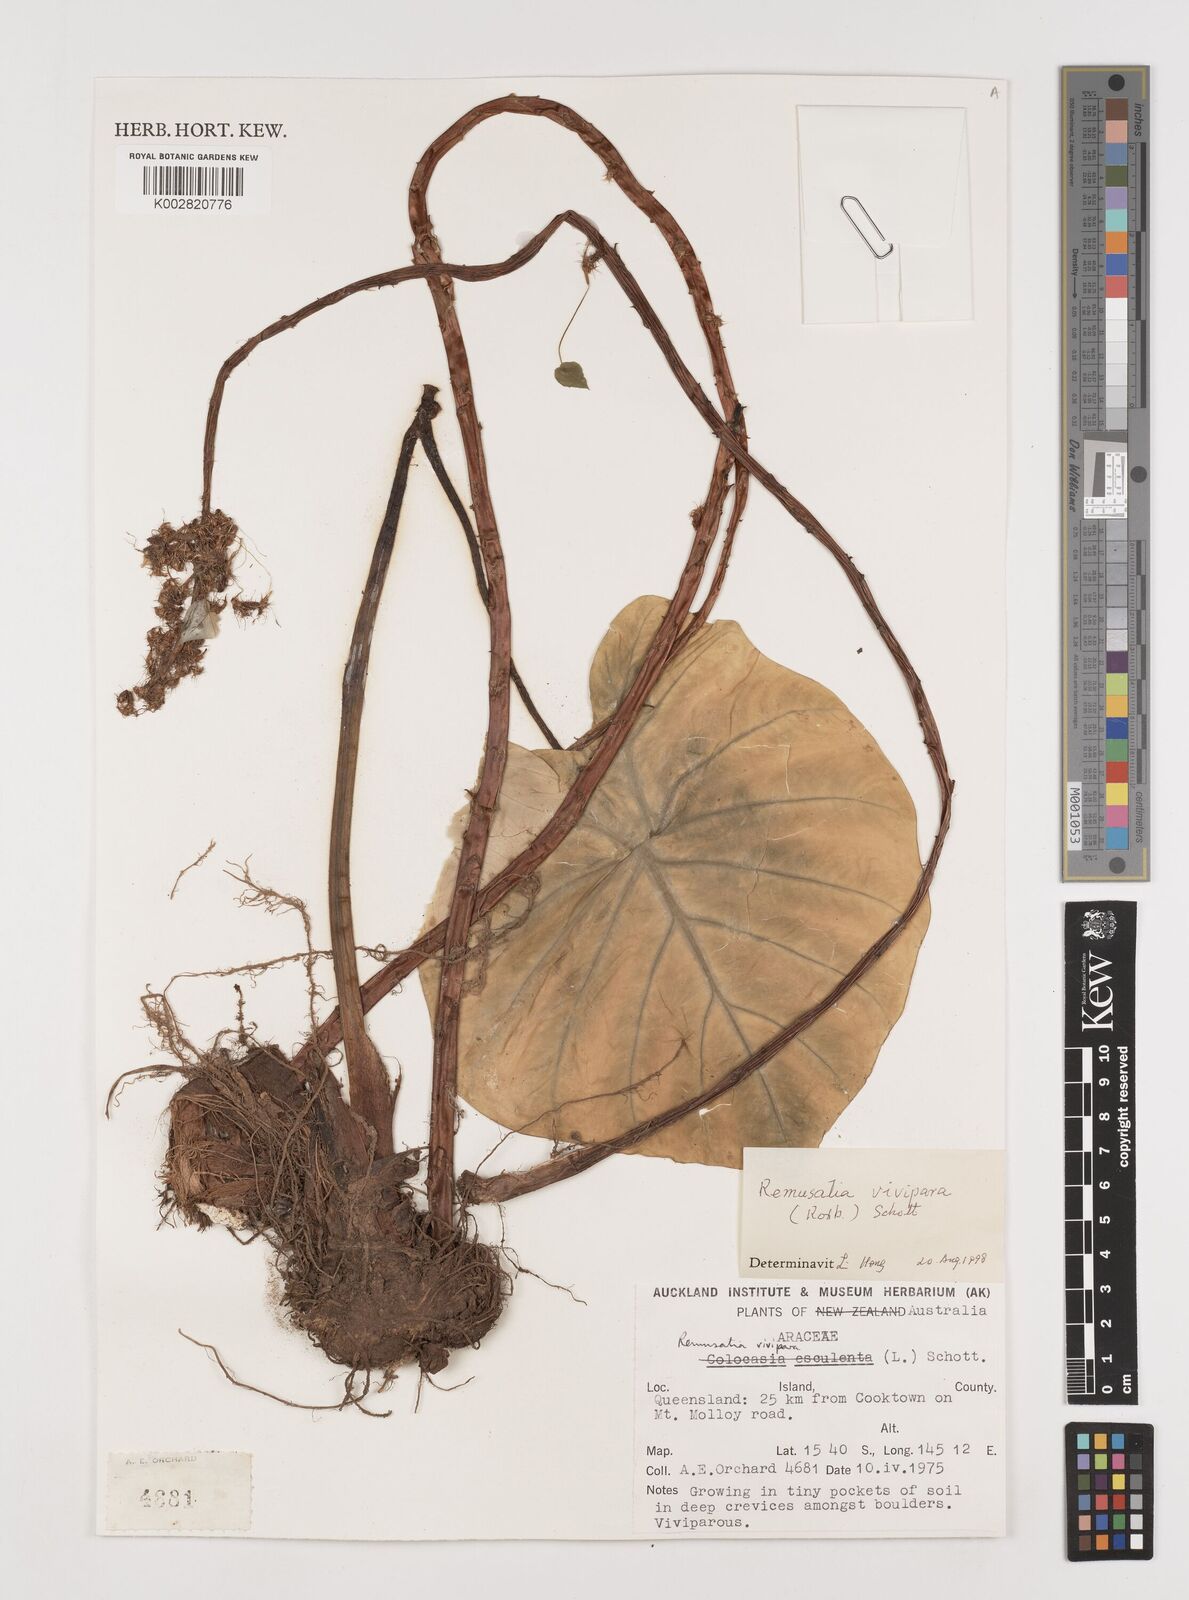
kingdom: Plantae
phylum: Tracheophyta
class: Liliopsida
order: Alismatales
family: Araceae
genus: Remusatia
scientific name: Remusatia vivipara
